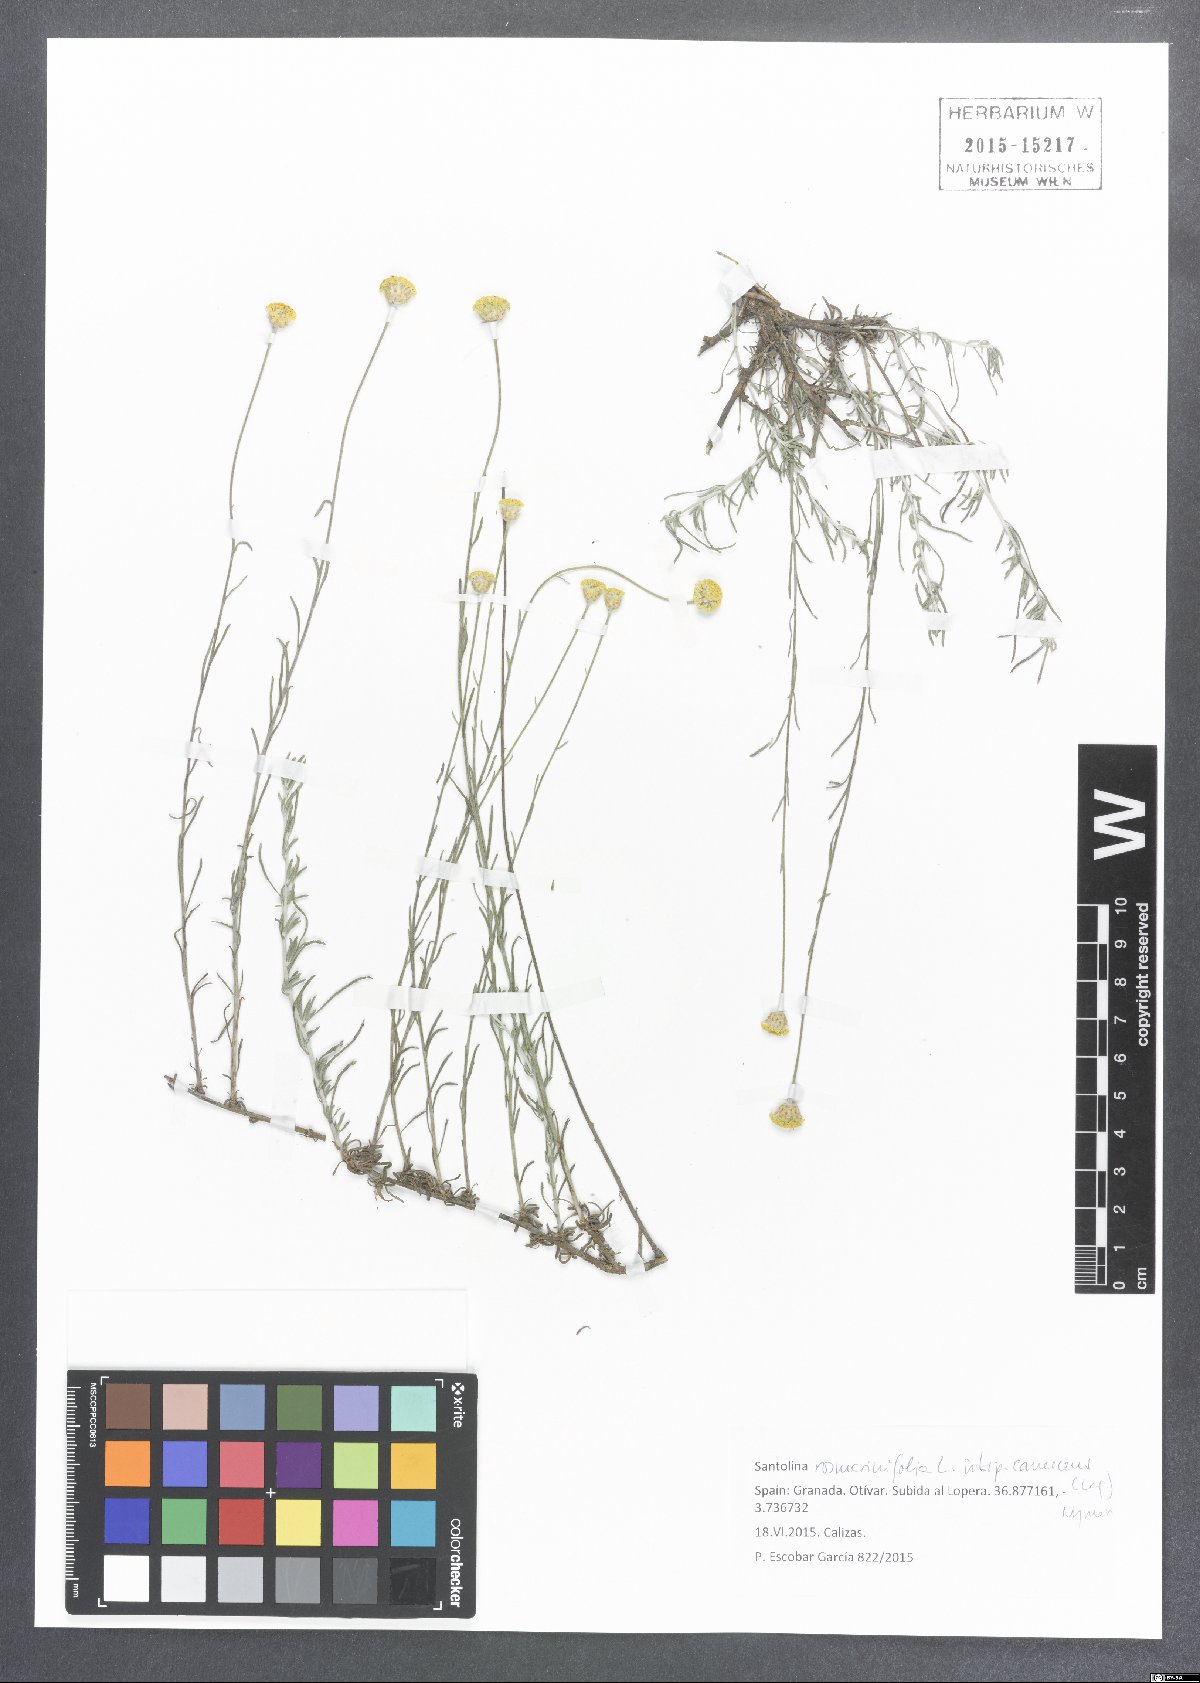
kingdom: Plantae
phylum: Tracheophyta
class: Magnoliopsida
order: Asterales
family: Asteraceae
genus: Santolina
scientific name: Santolina pectinata
